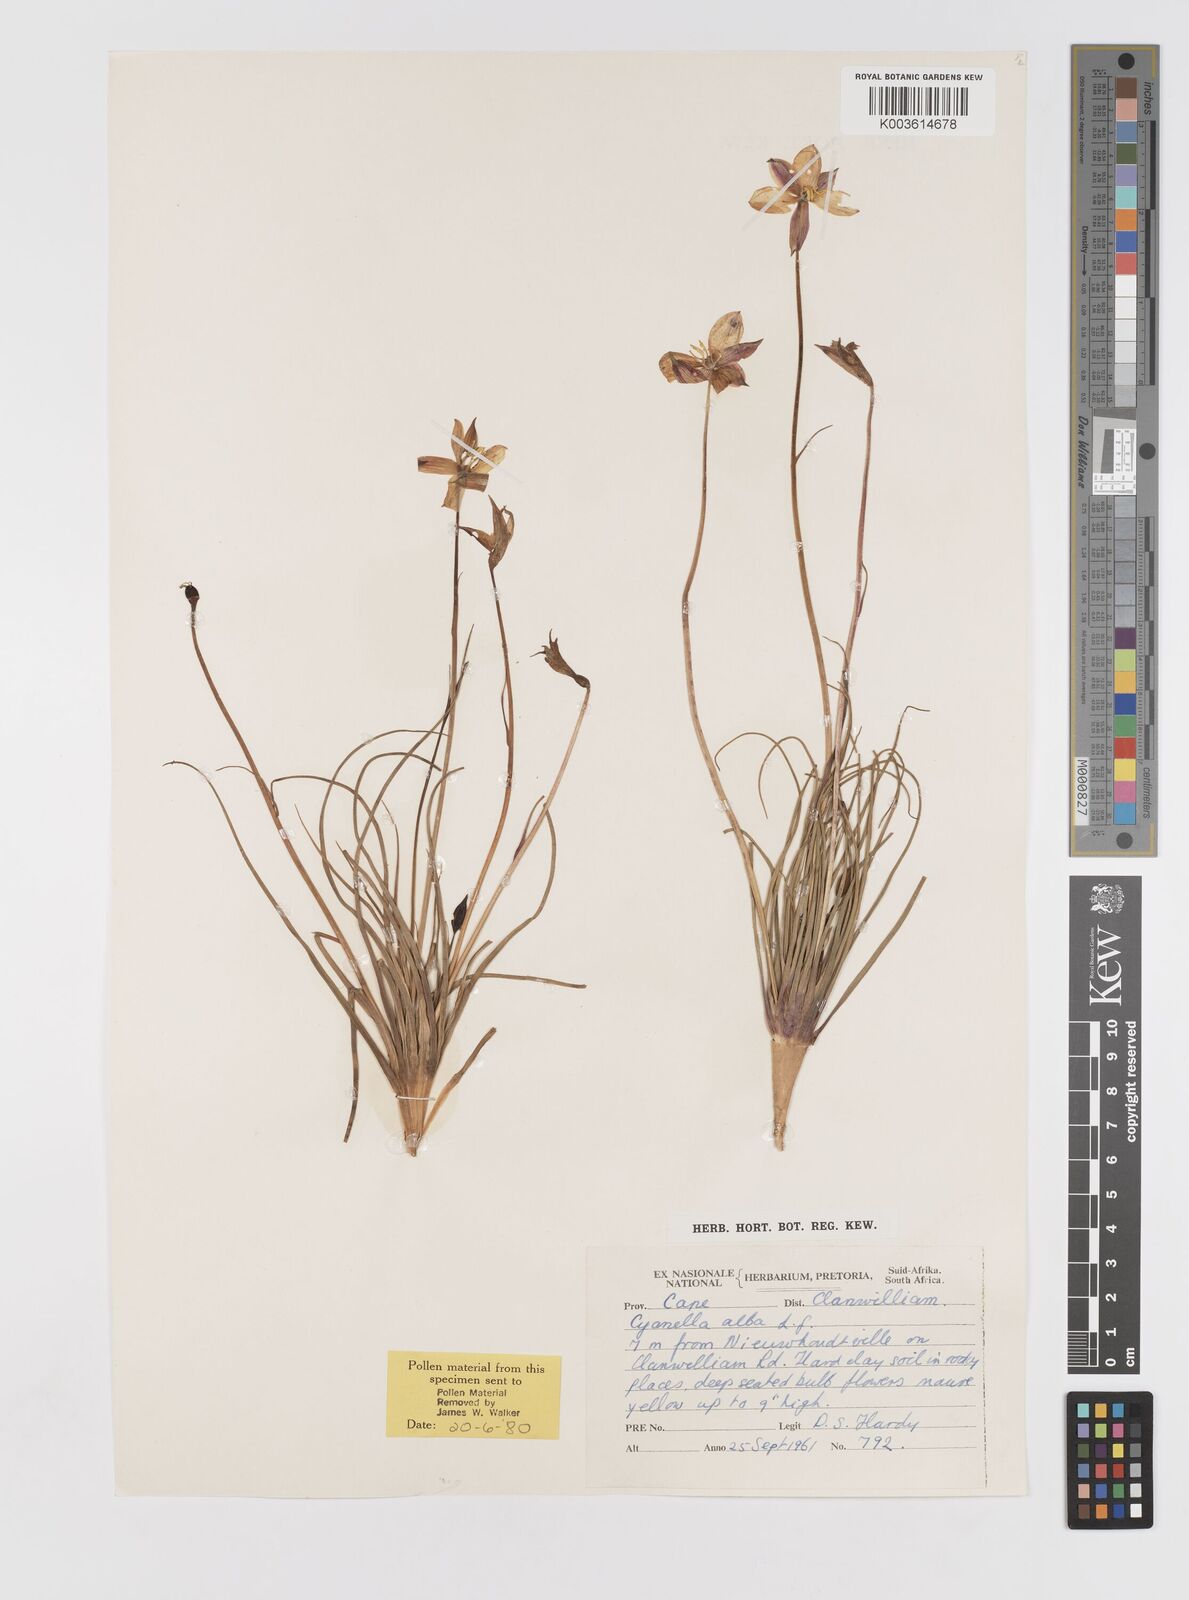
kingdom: Plantae
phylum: Tracheophyta
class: Liliopsida
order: Asparagales
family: Tecophilaeaceae
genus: Cyanella
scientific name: Cyanella alba
